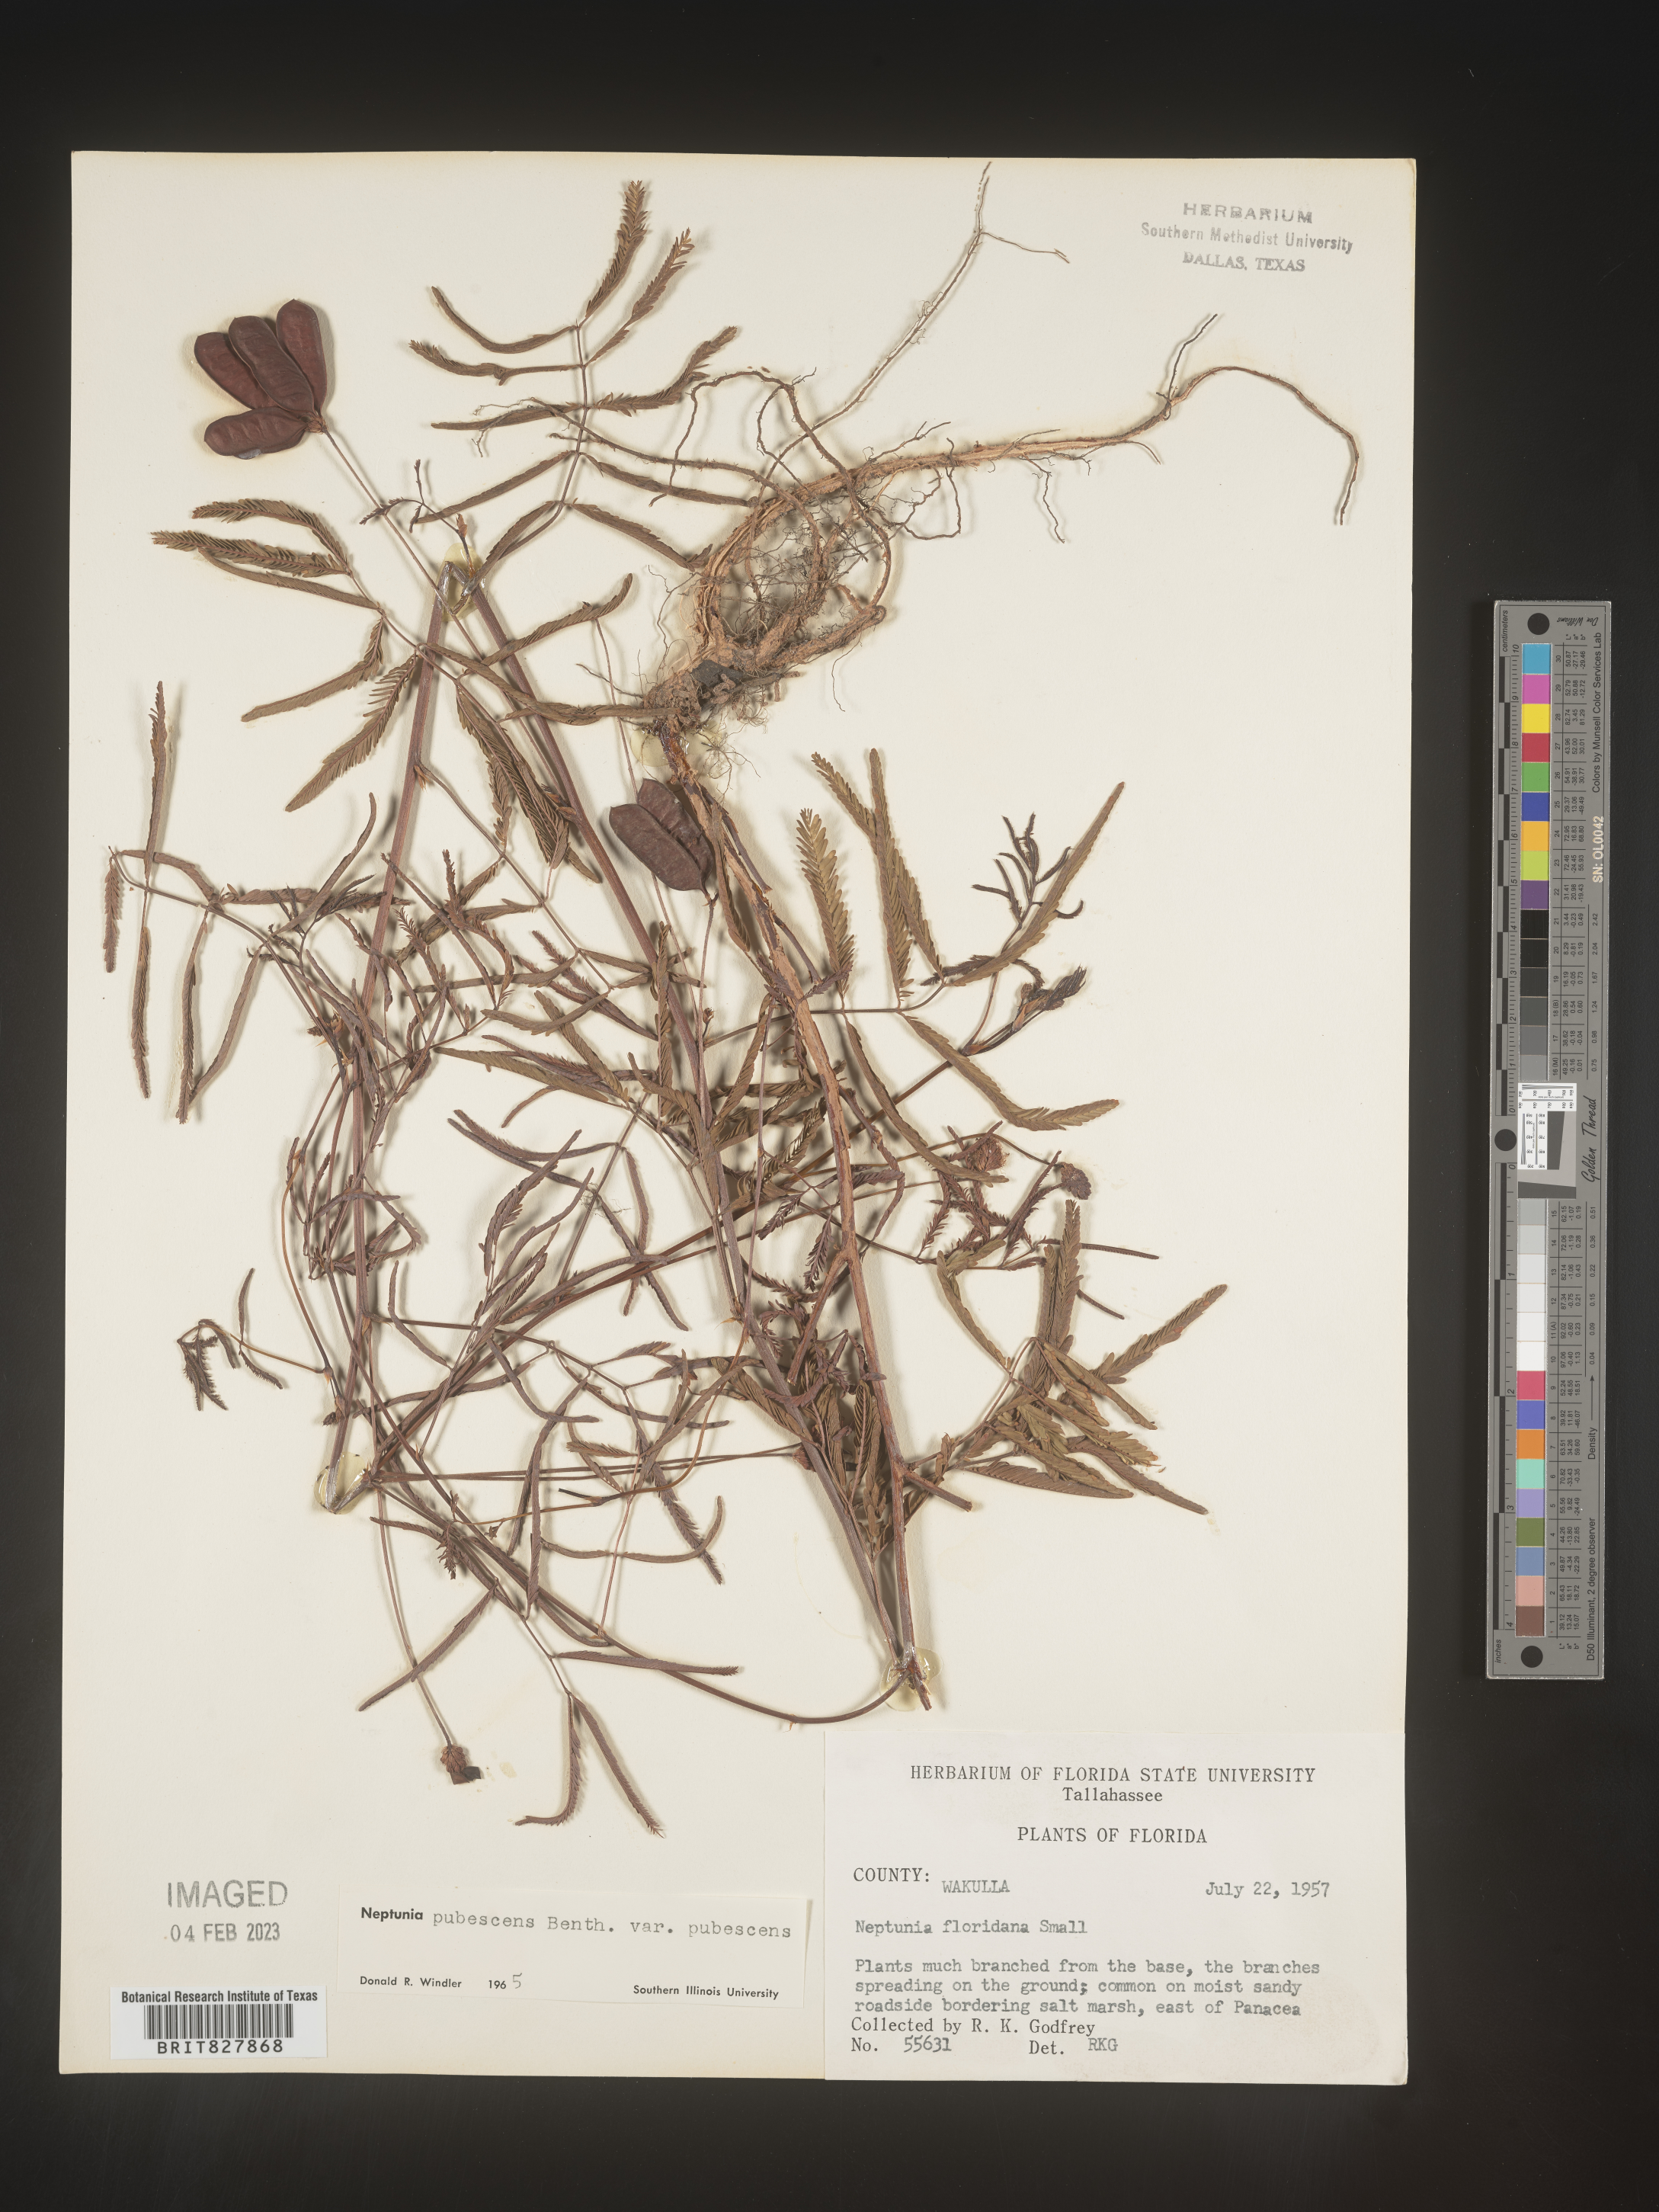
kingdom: Plantae
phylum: Tracheophyta
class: Magnoliopsida
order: Fabales
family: Fabaceae
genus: Neptunia
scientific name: Neptunia pubescens
